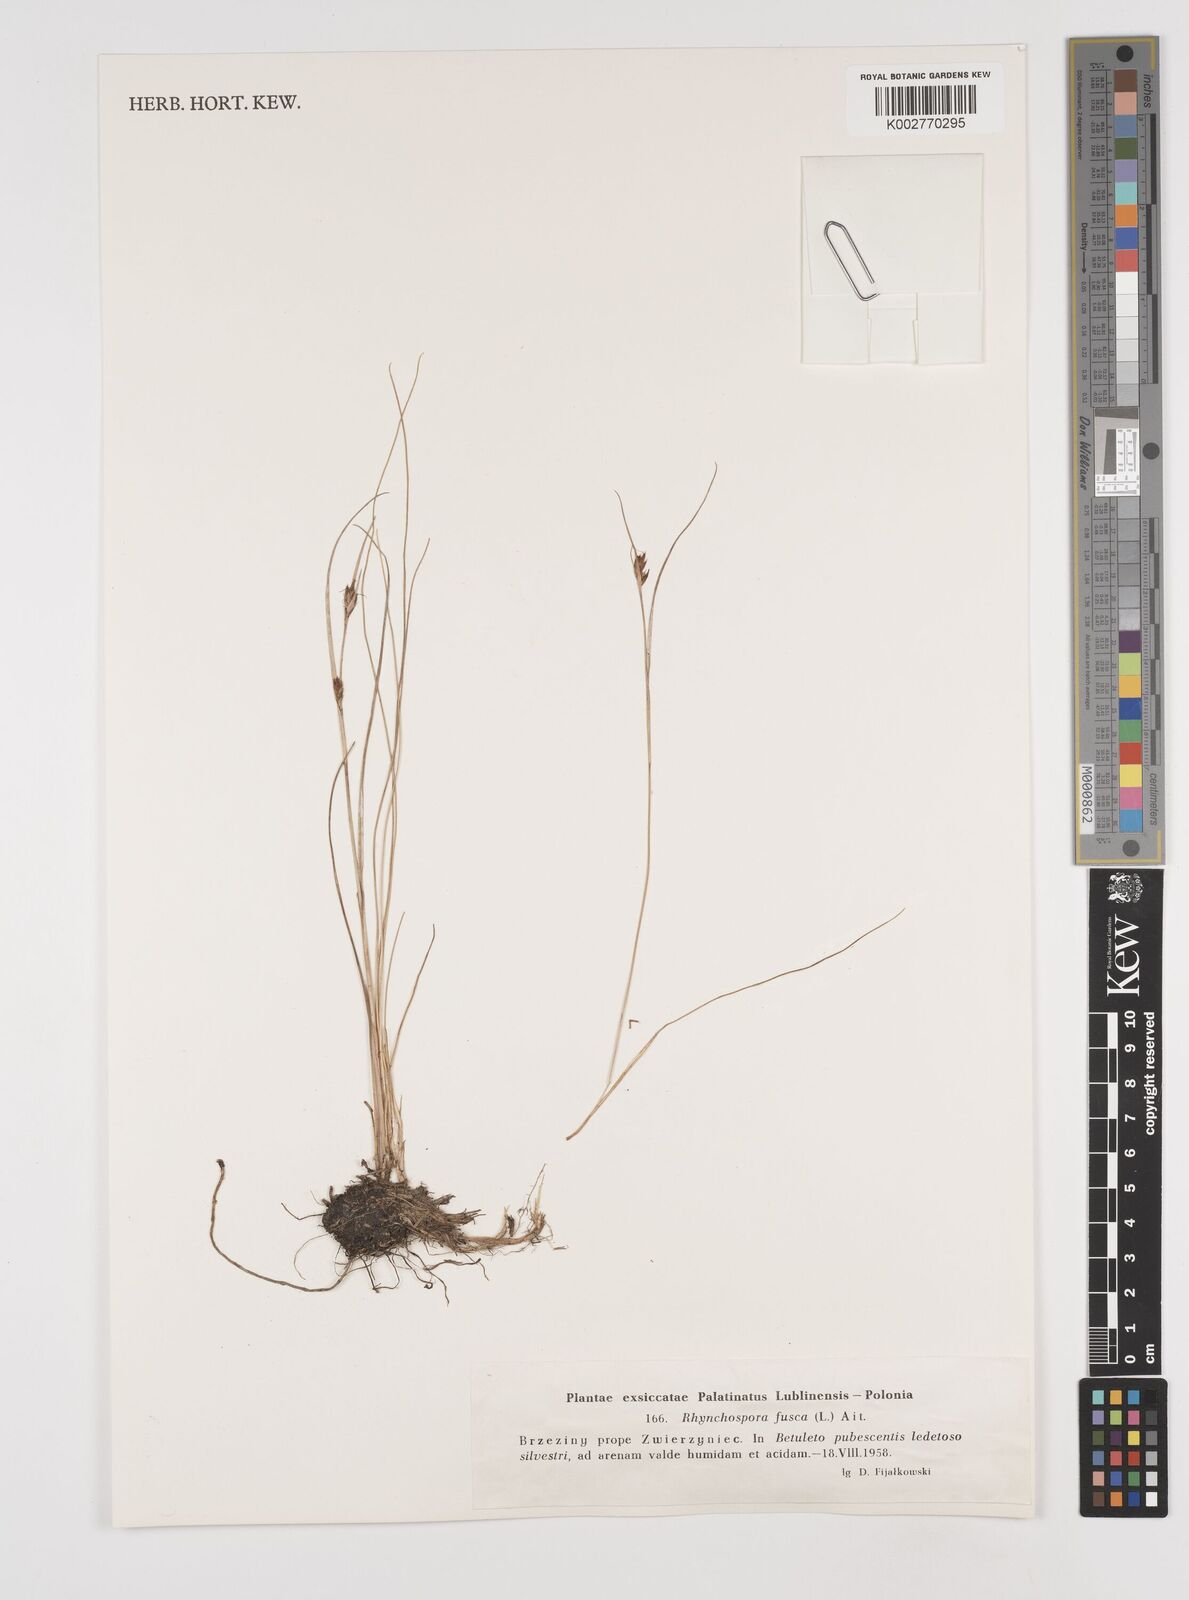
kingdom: Plantae
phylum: Tracheophyta
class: Liliopsida
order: Poales
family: Cyperaceae
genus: Rhynchospora
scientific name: Rhynchospora fusca
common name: Brown beak-sedge
